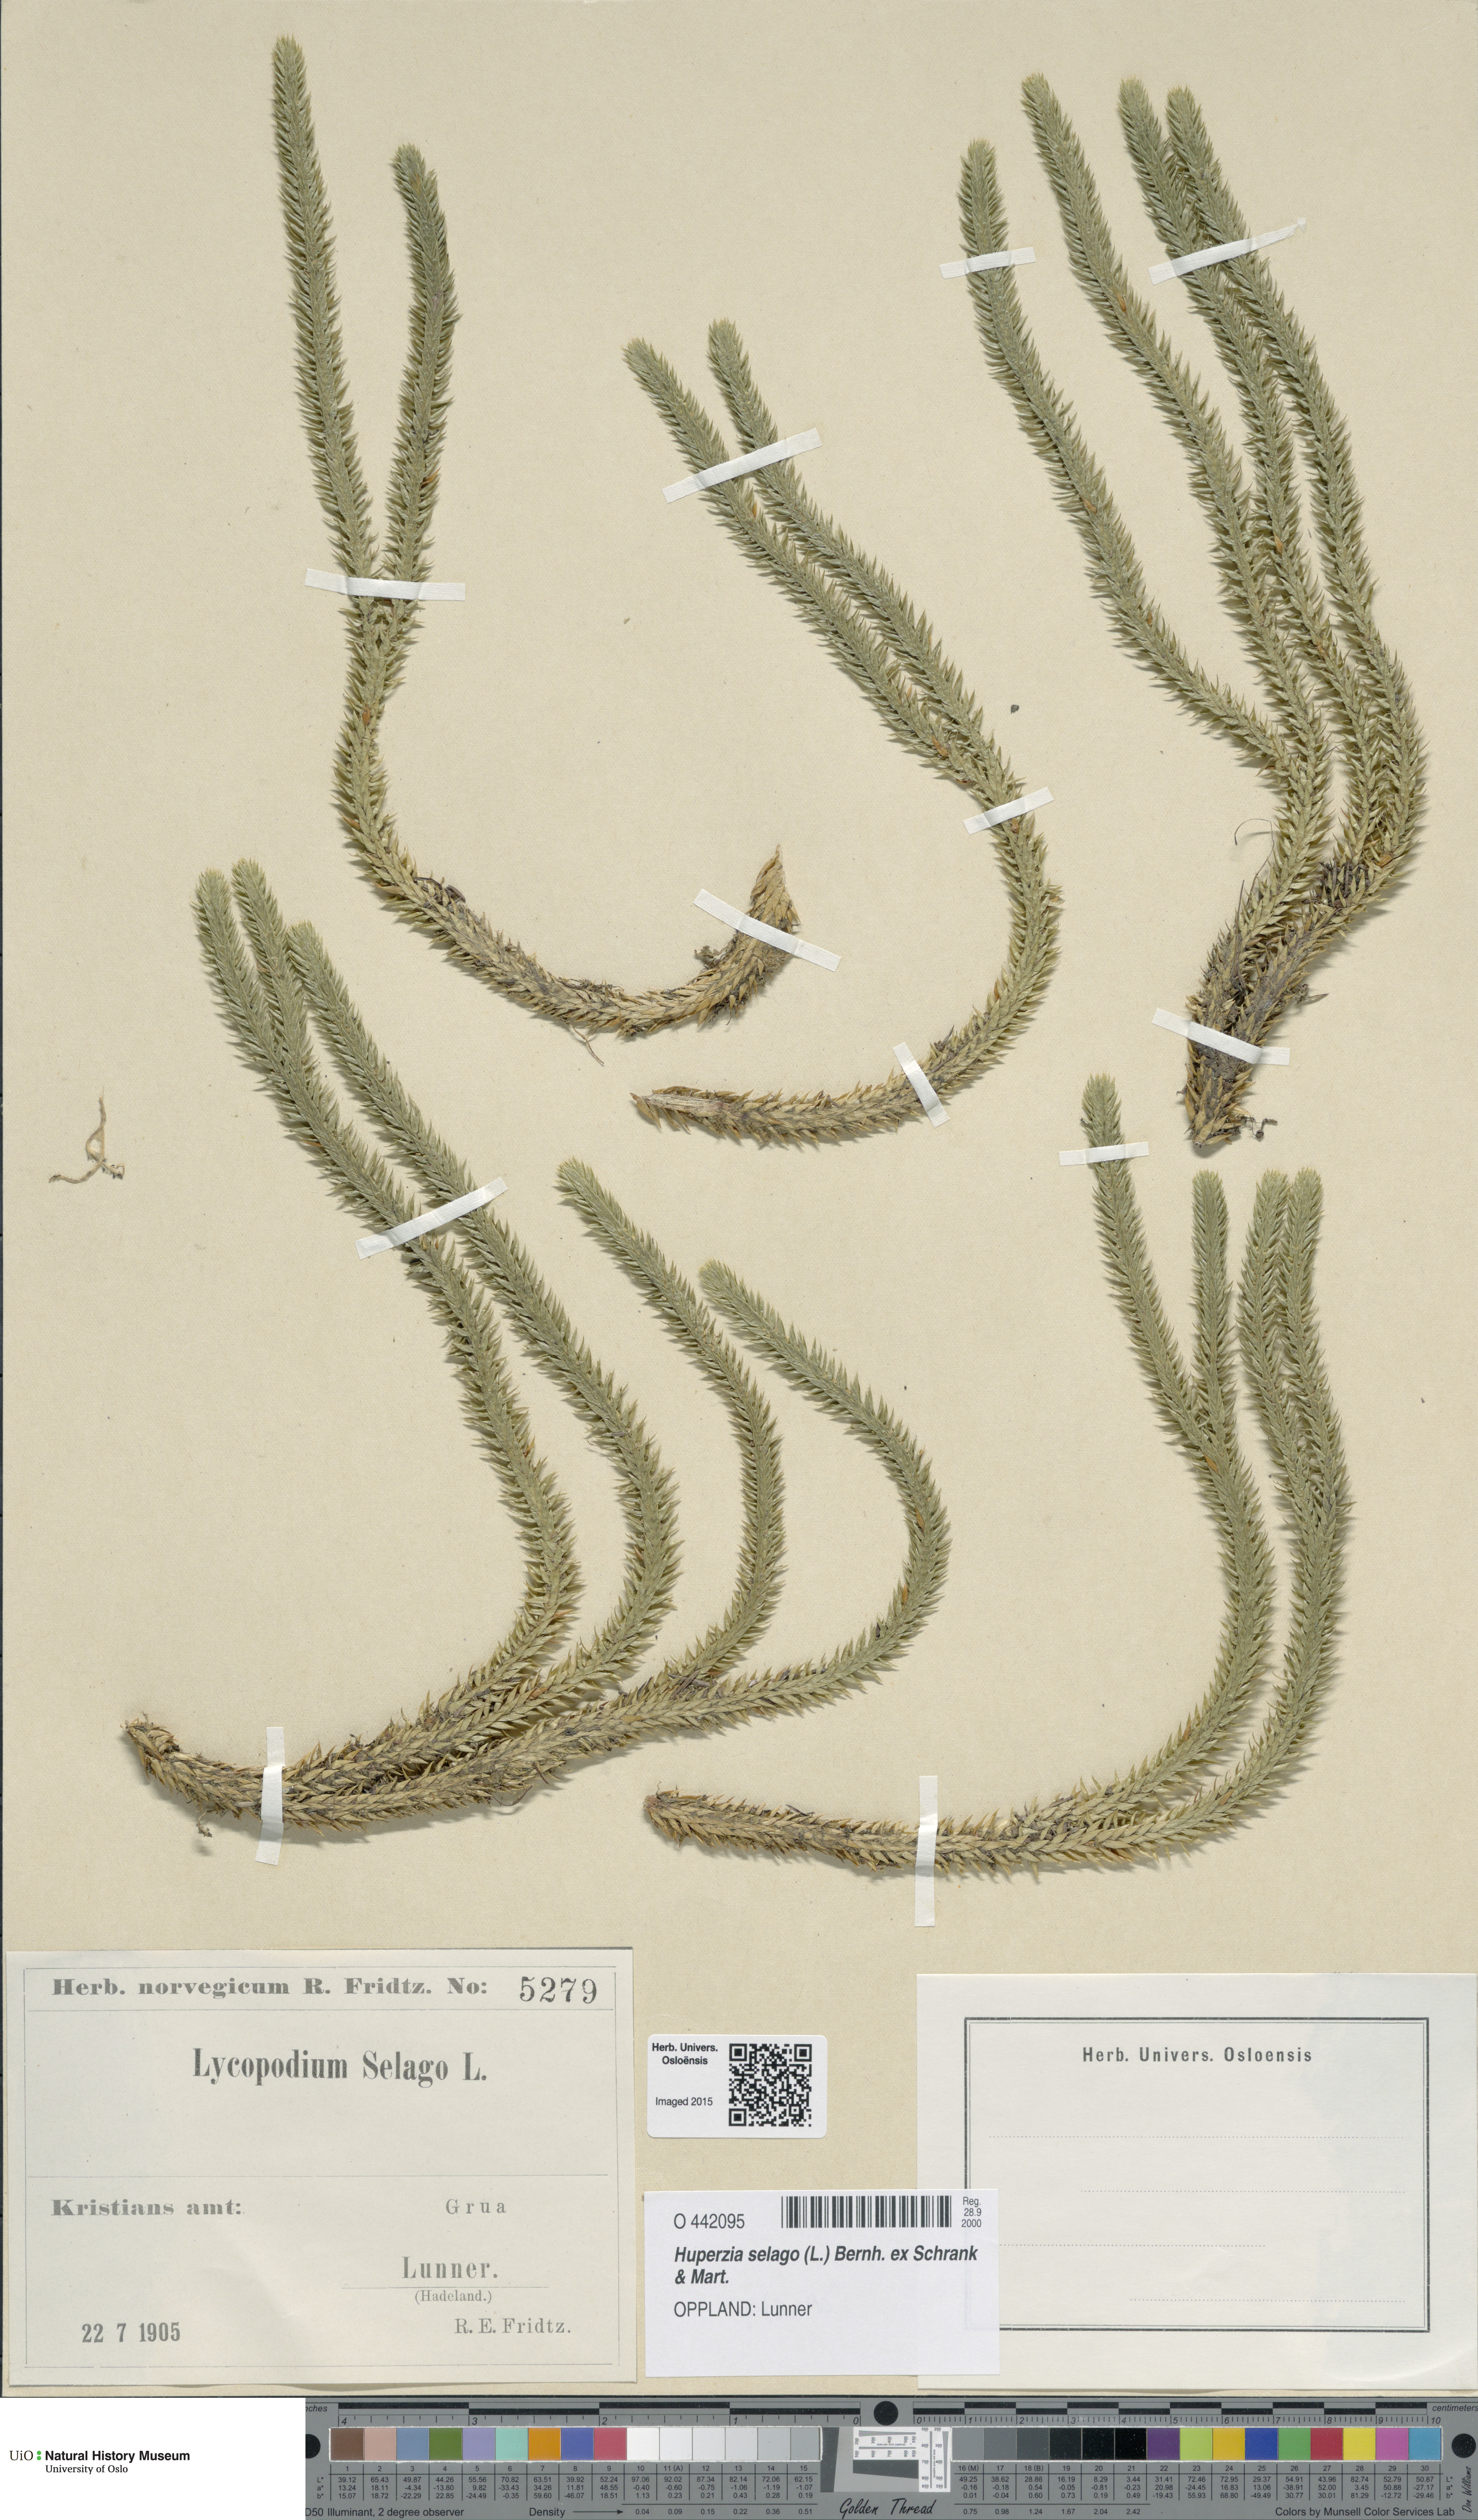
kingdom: Plantae
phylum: Tracheophyta
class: Lycopodiopsida
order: Lycopodiales
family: Lycopodiaceae
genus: Huperzia
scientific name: Huperzia selago
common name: Northern firmoss
